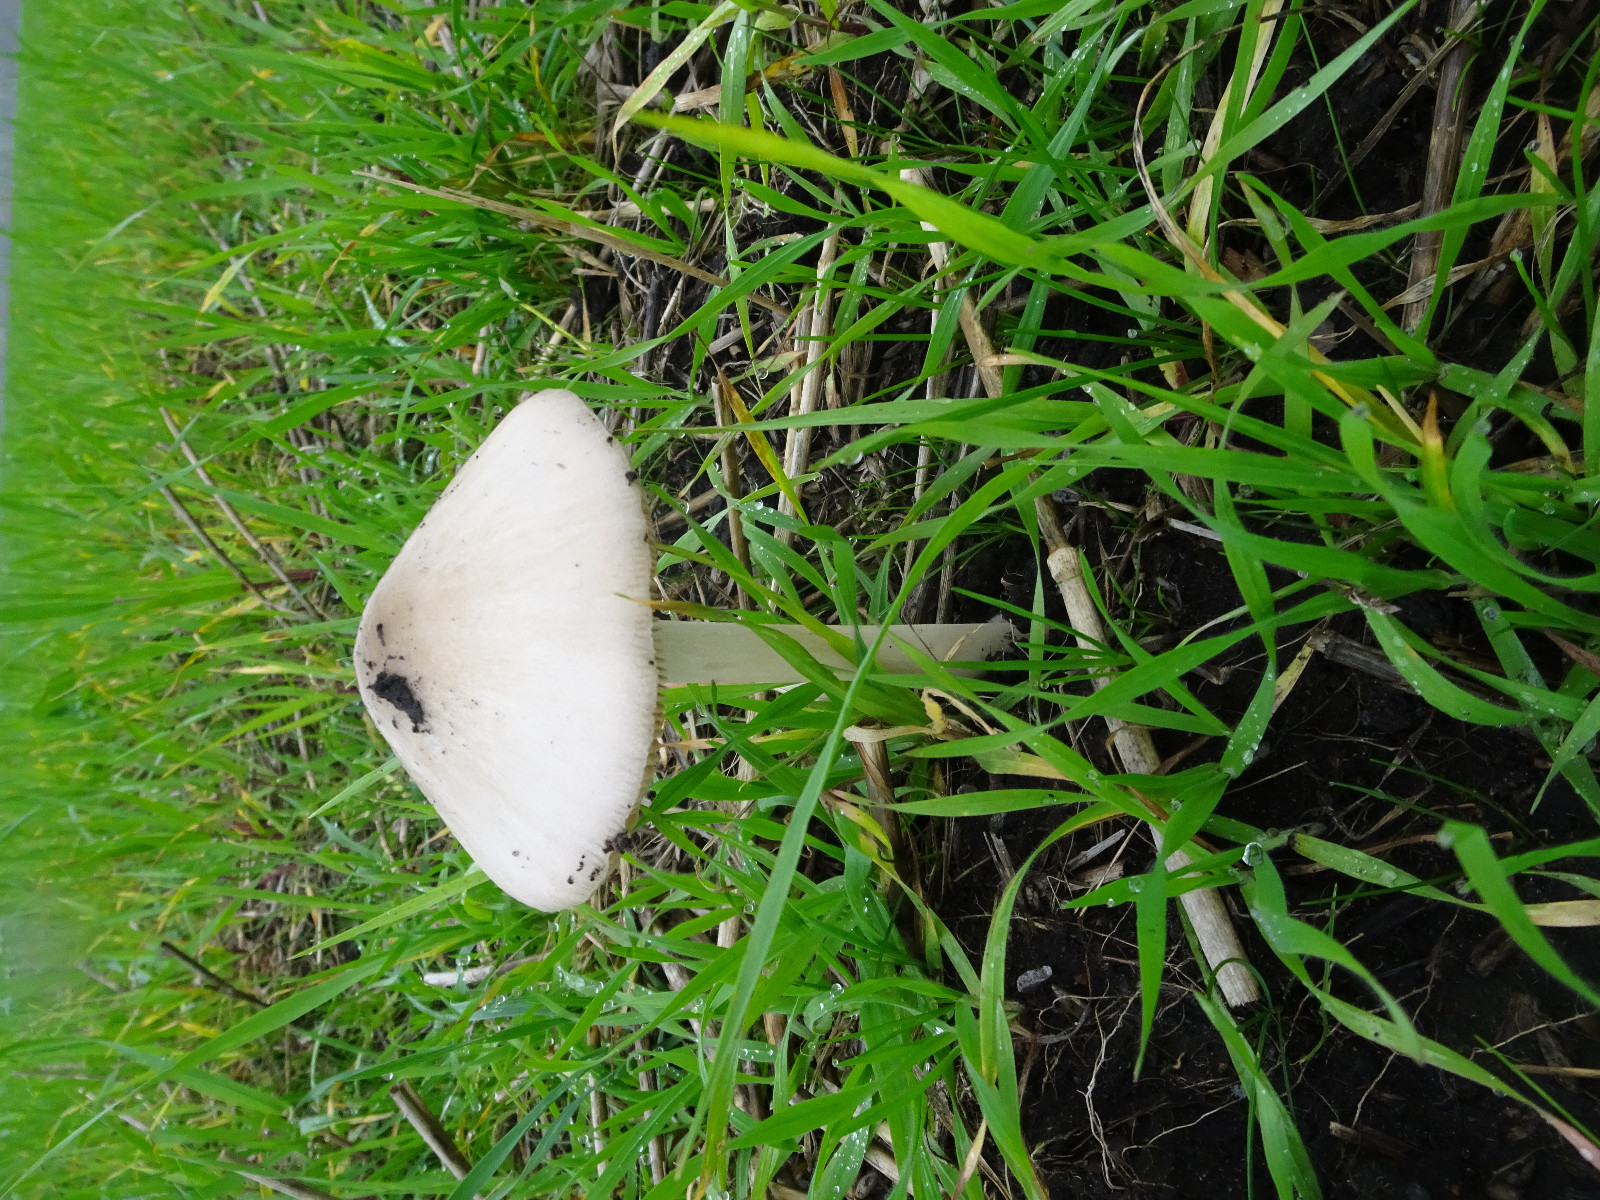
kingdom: Fungi
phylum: Basidiomycota
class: Agaricomycetes
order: Agaricales
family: Pluteaceae
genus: Volvopluteus
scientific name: Volvopluteus gloiocephalus
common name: høj posesvamp
